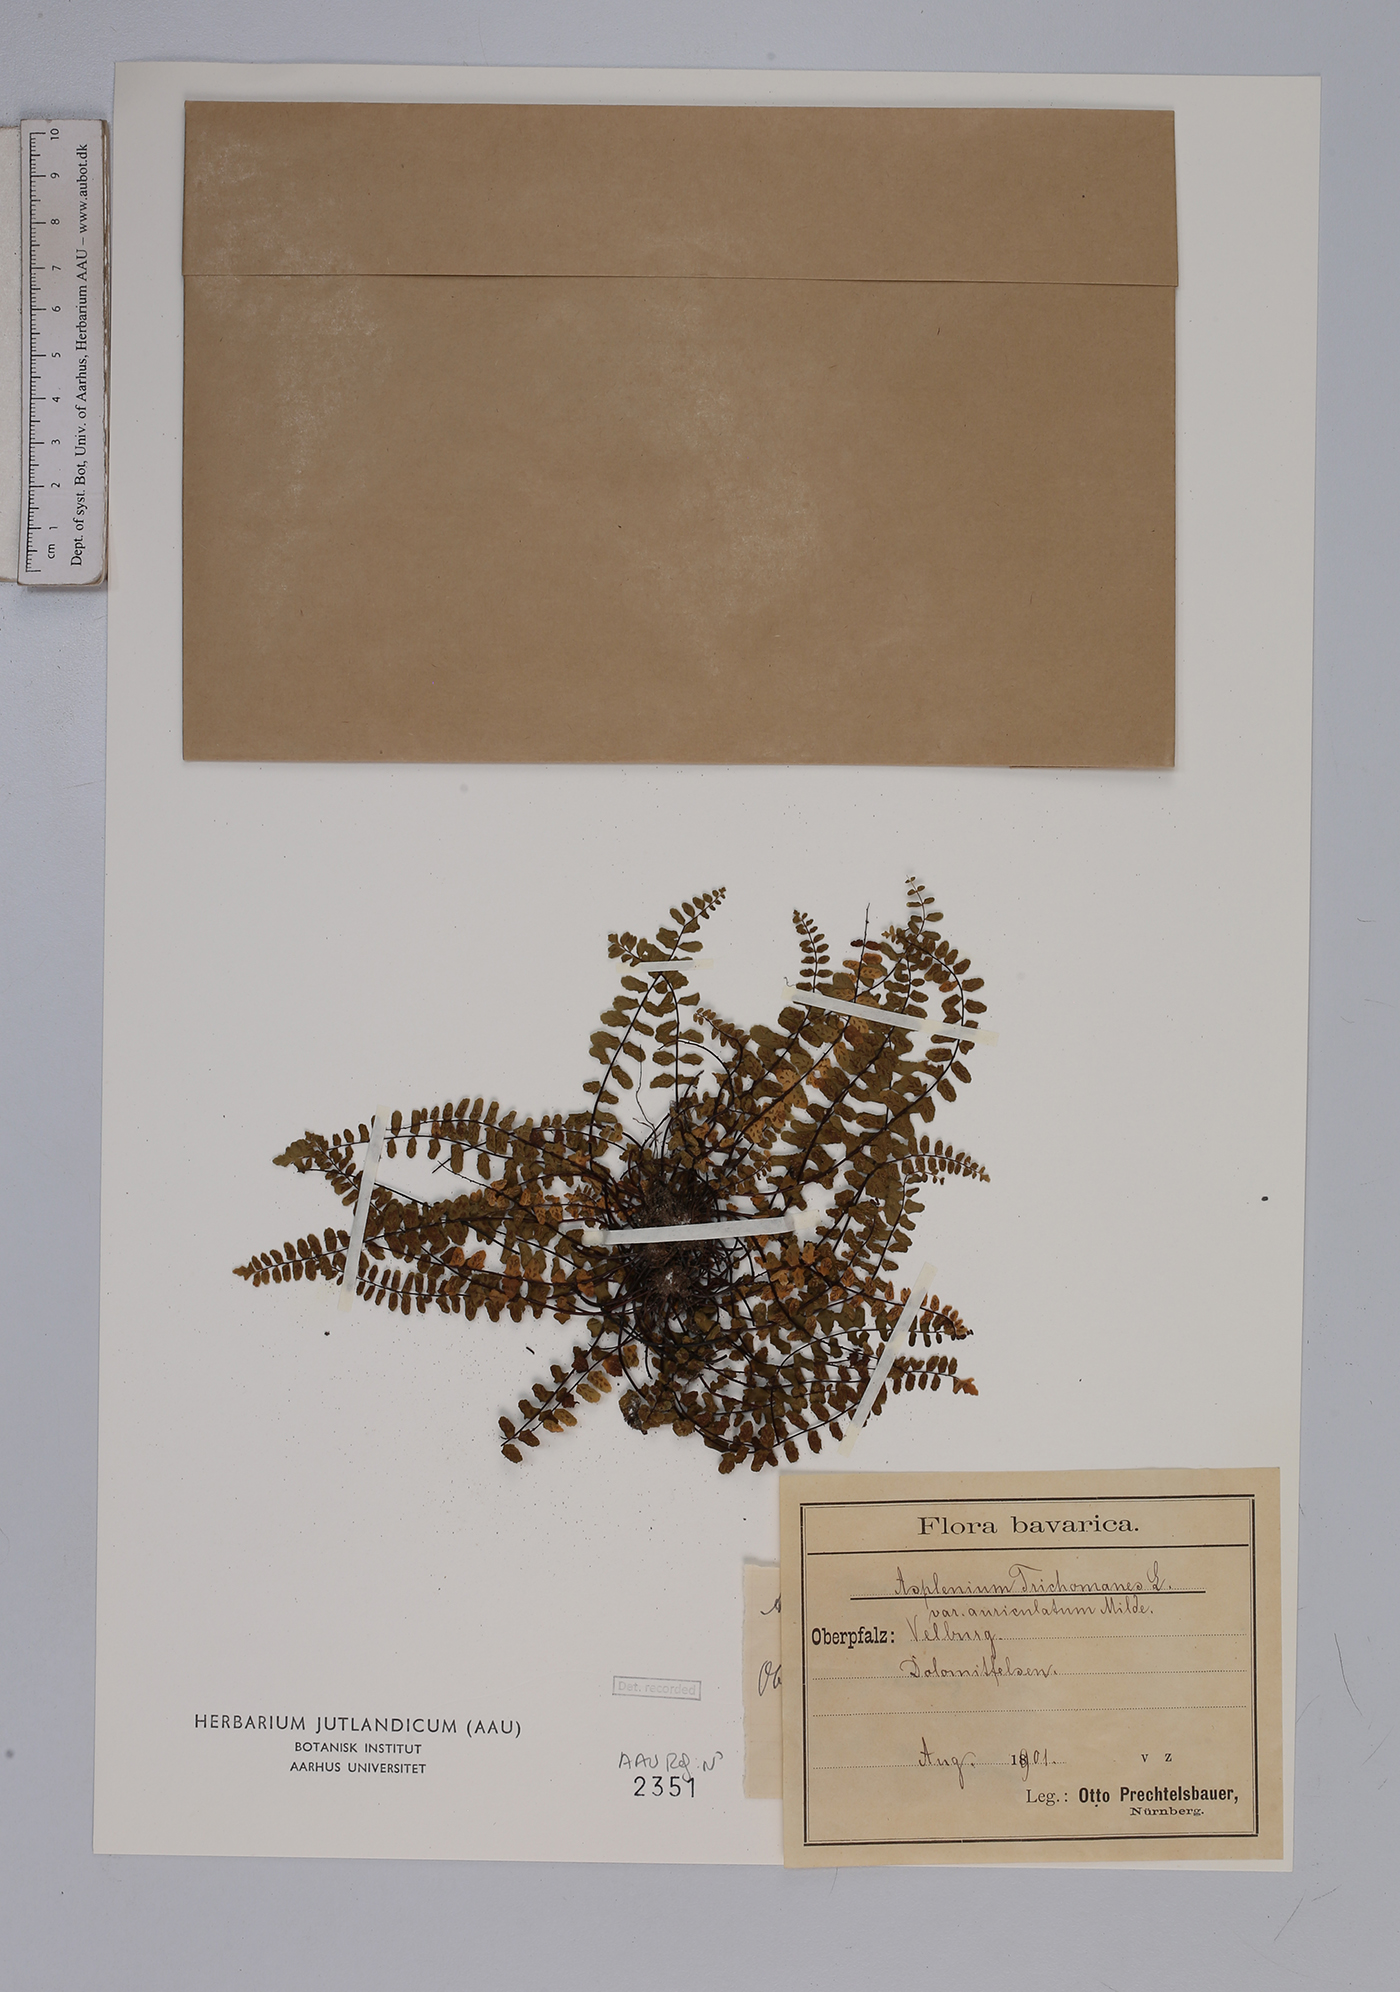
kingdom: Plantae
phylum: Tracheophyta
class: Polypodiopsida
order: Polypodiales
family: Aspleniaceae
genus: Asplenium
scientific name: Asplenium trichomanes
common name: Maidenhair spleenwort
